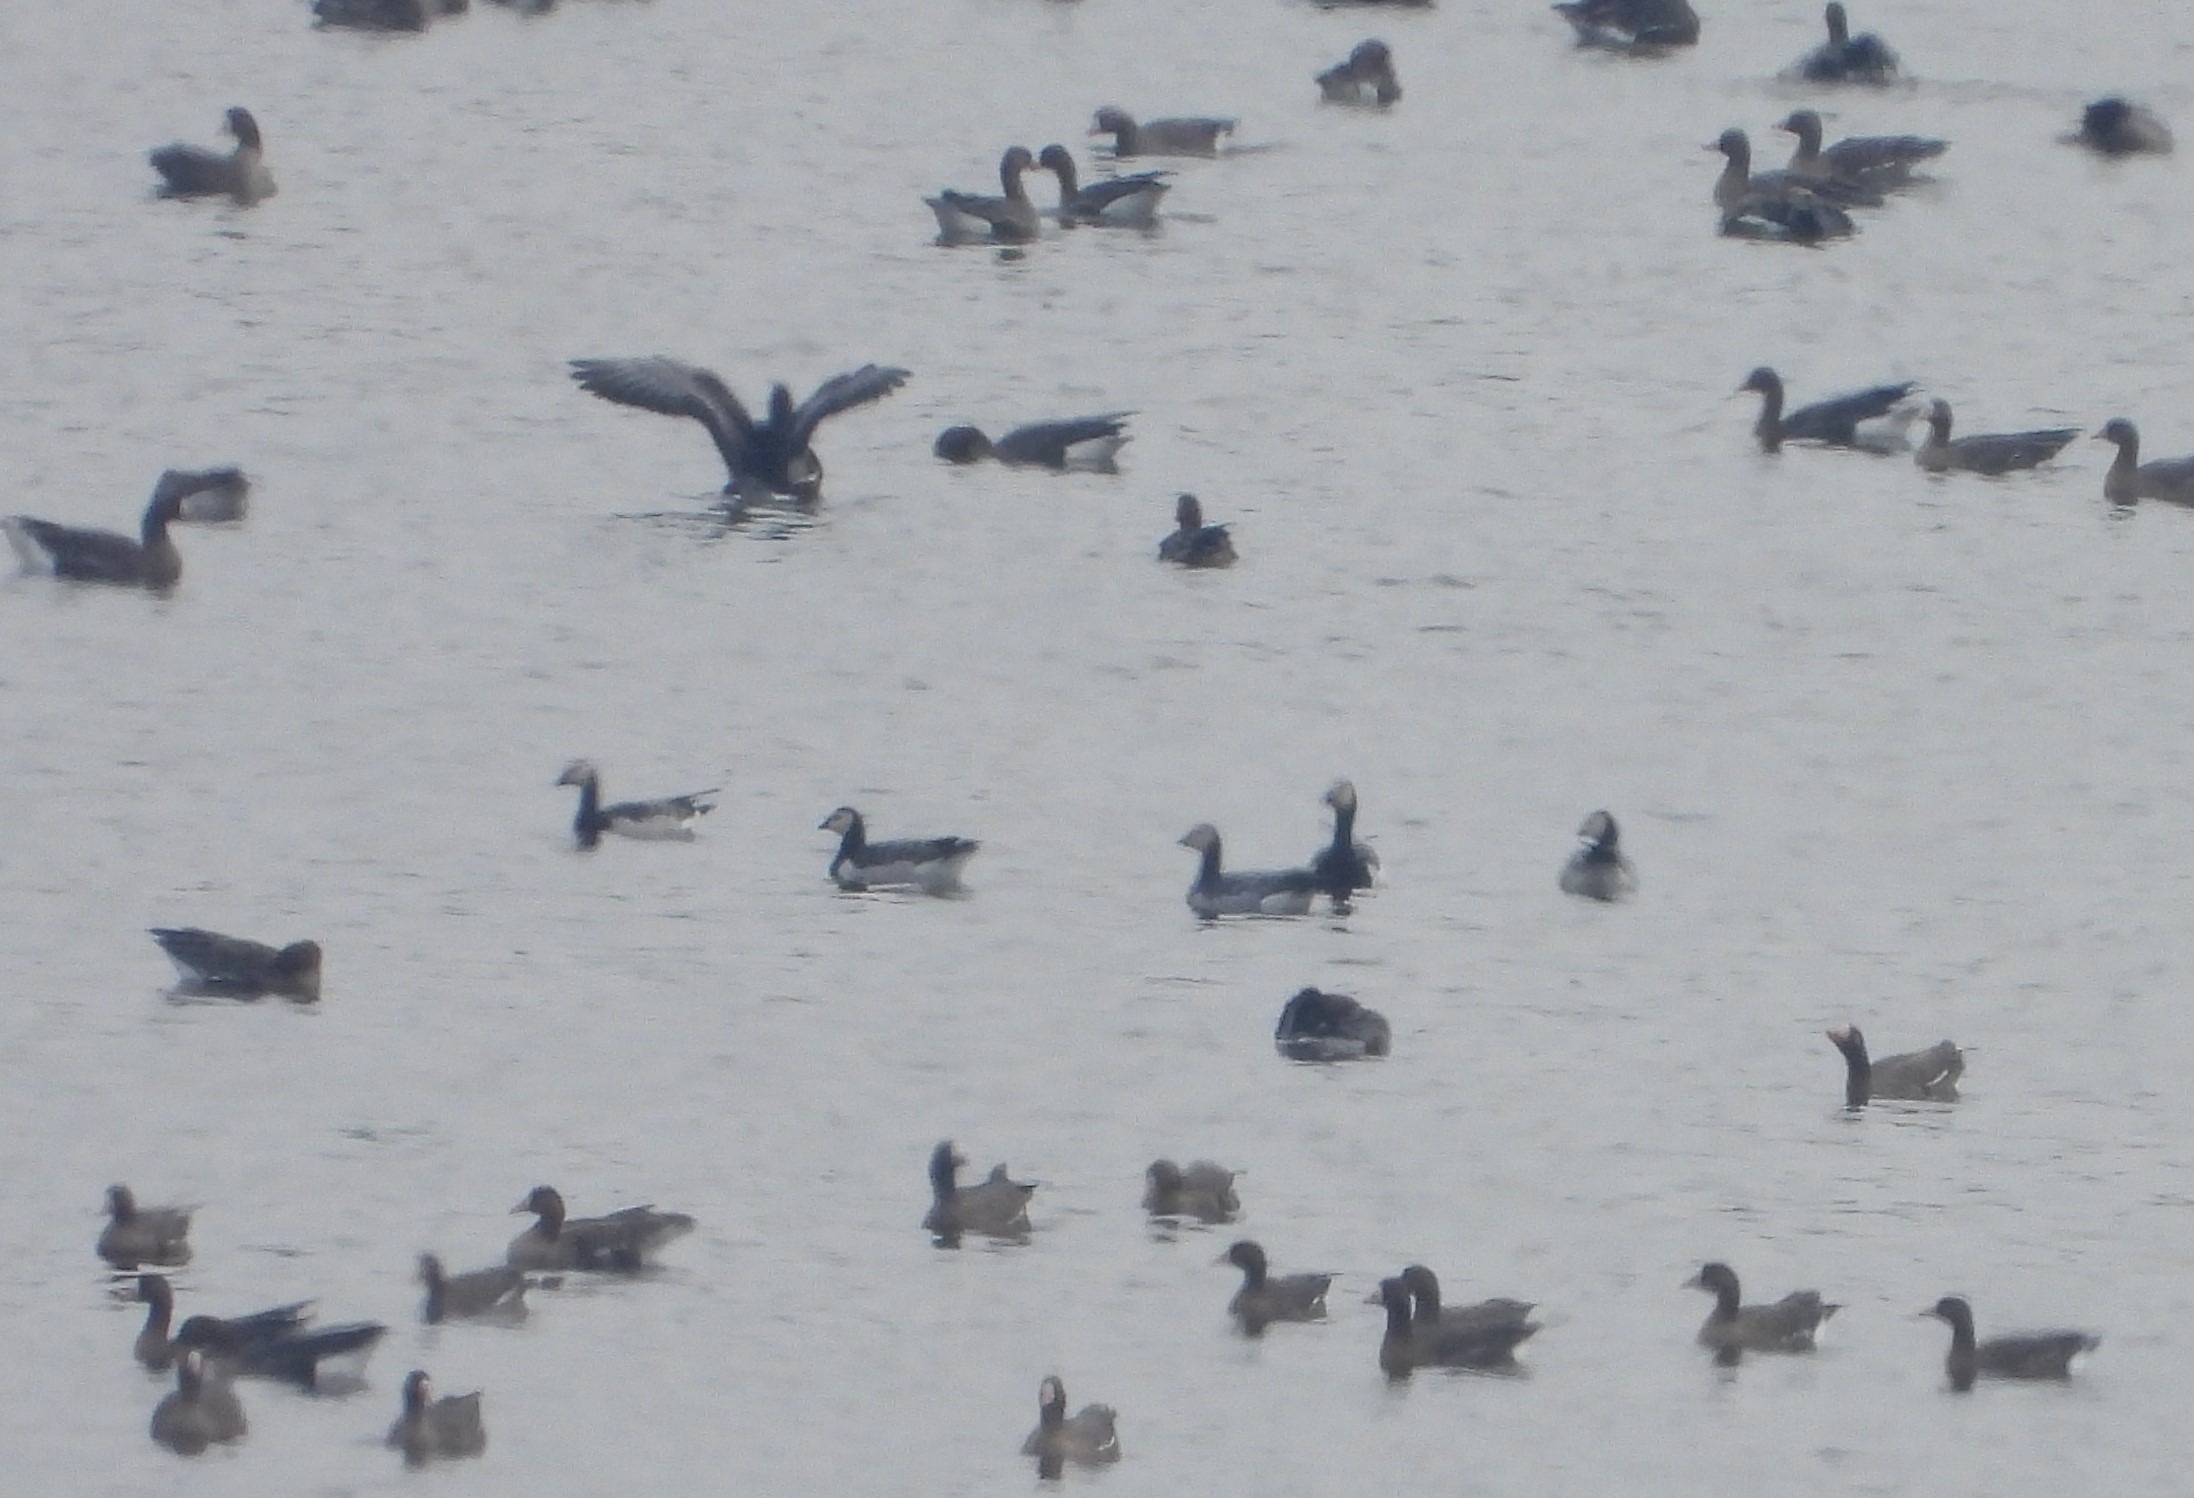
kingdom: Animalia
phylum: Chordata
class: Aves
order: Anseriformes
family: Anatidae
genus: Branta
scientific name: Branta leucopsis
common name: Bramgås
